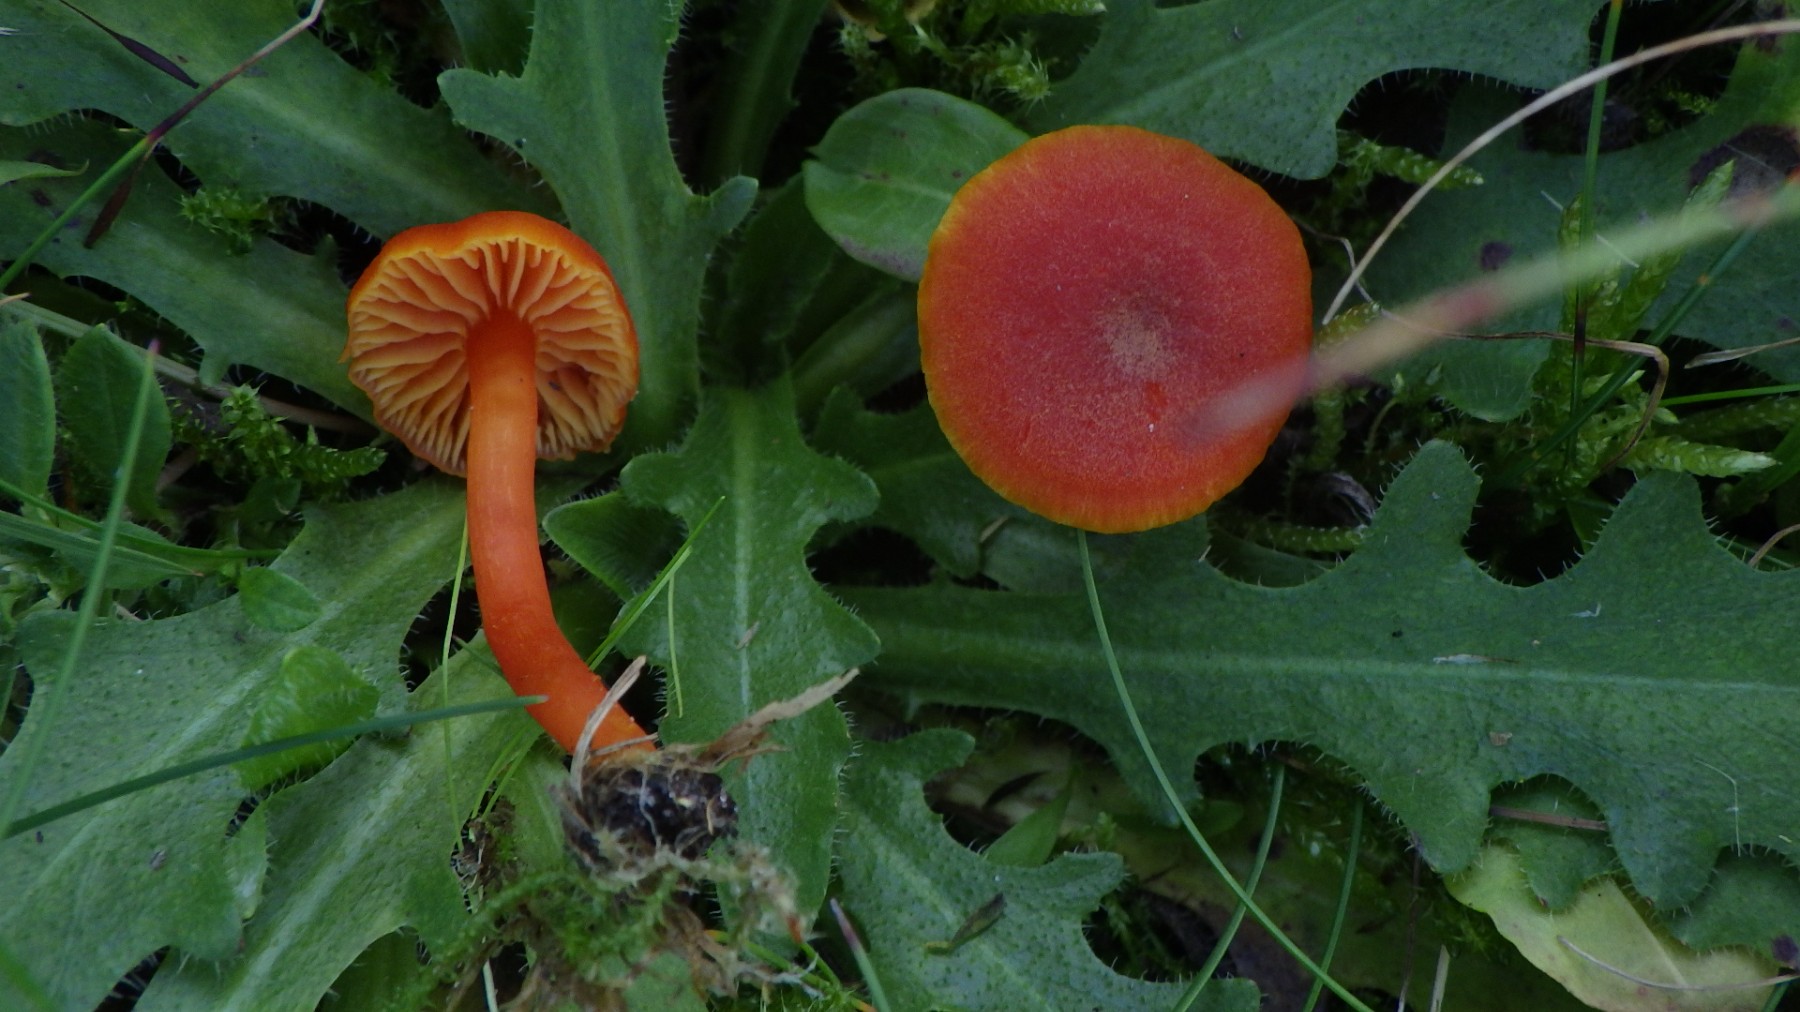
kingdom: Fungi
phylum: Basidiomycota
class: Agaricomycetes
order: Agaricales
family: Hygrophoraceae
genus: Hygrocybe
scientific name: Hygrocybe miniata
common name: mønje-vokshat
